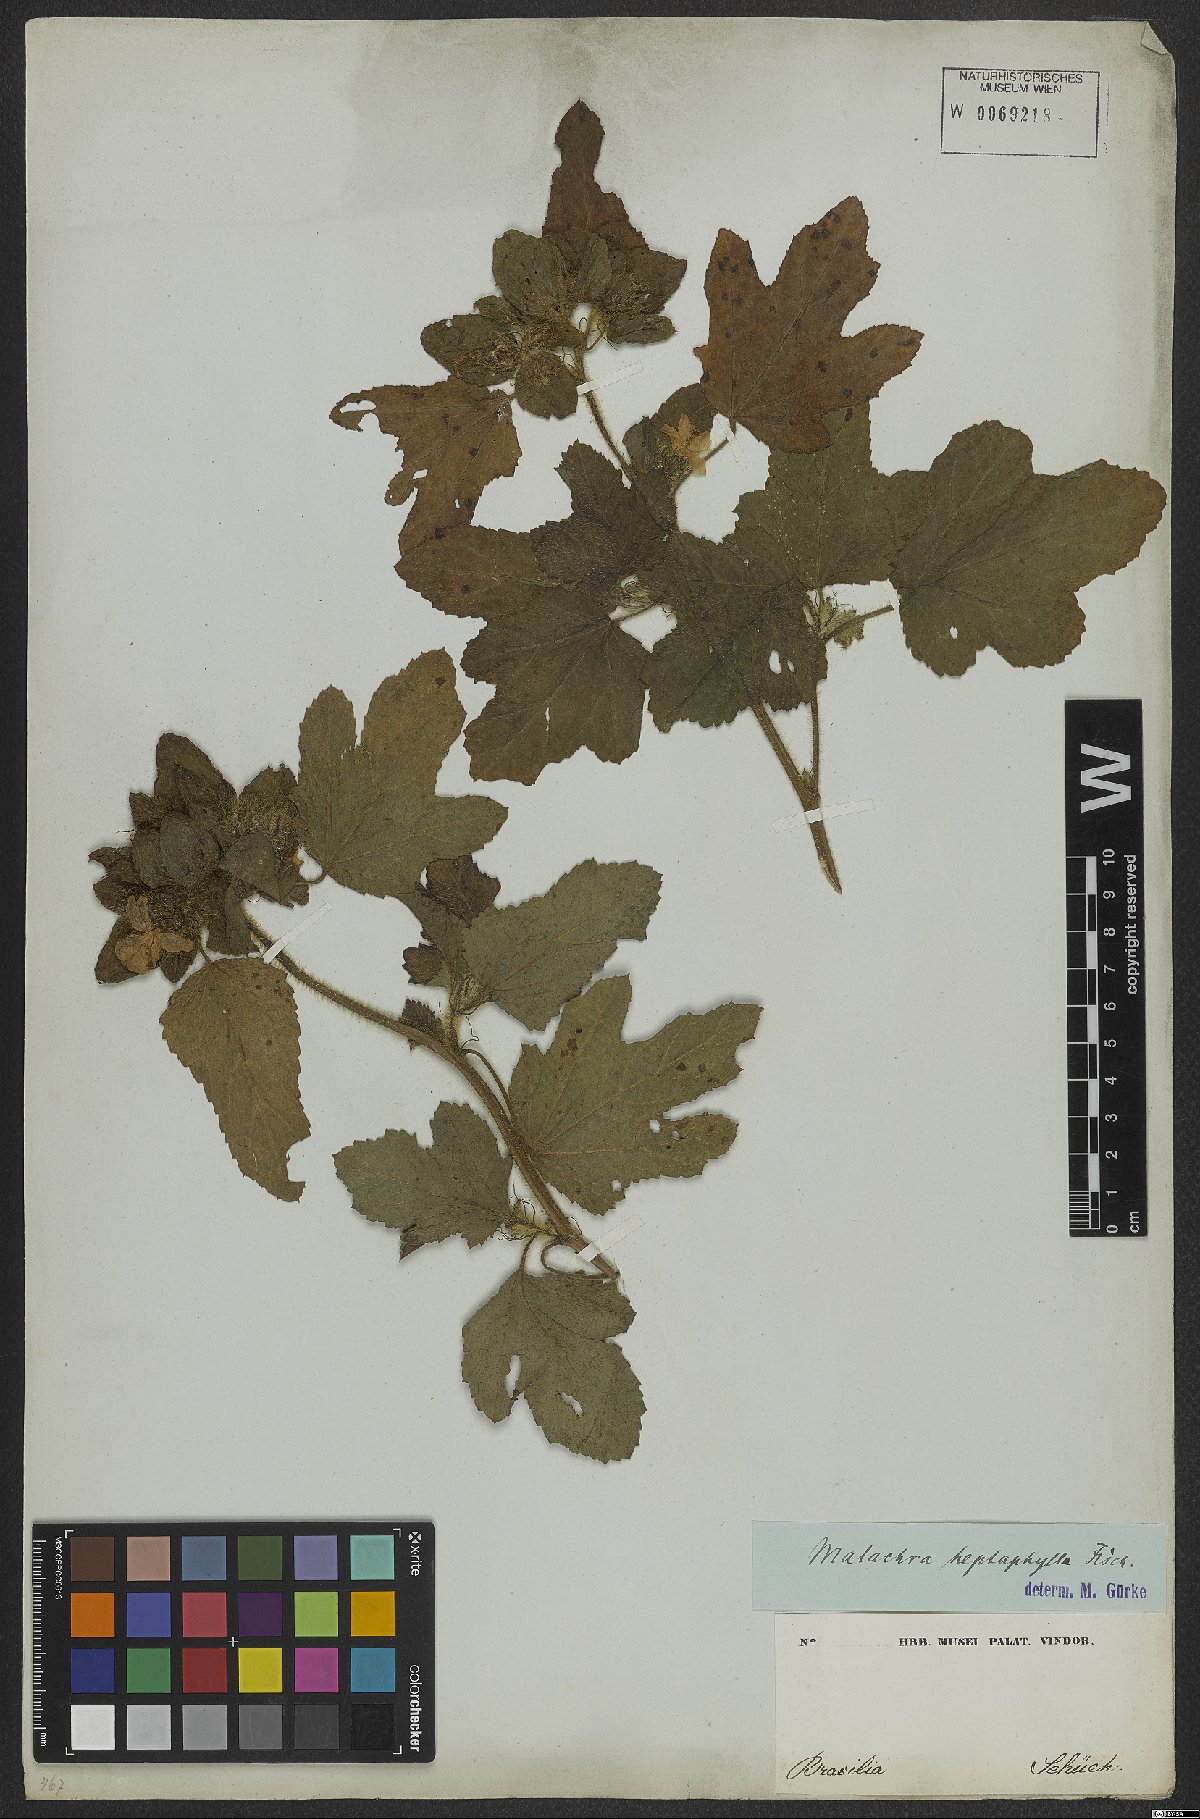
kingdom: Plantae
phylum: Tracheophyta
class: Magnoliopsida
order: Malvales
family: Malvaceae
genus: Malachra
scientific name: Malachra capitata
